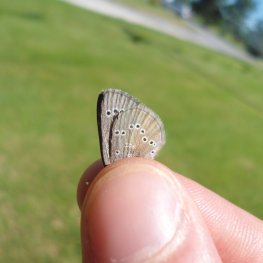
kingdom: Animalia
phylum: Arthropoda
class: Insecta
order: Lepidoptera
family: Lycaenidae
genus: Glaucopsyche
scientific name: Glaucopsyche lygdamus
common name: Silvery Blue
